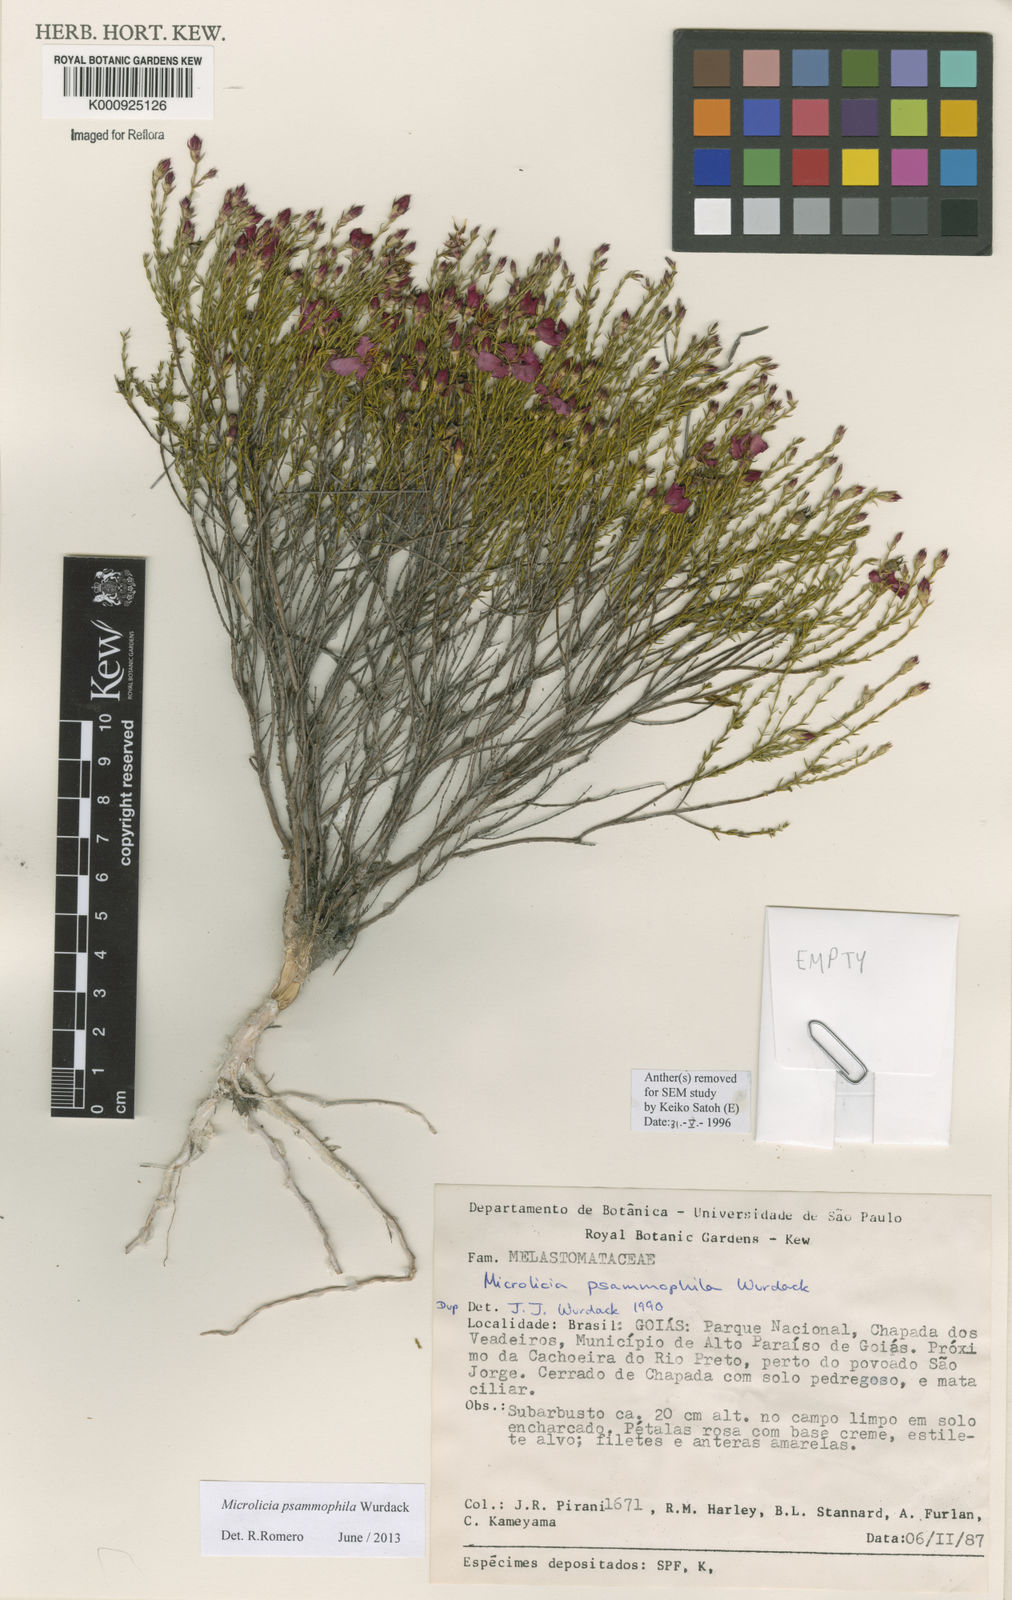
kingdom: Plantae
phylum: Tracheophyta
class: Magnoliopsida
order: Myrtales
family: Melastomataceae
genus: Microlicia
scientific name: Microlicia psammophila
